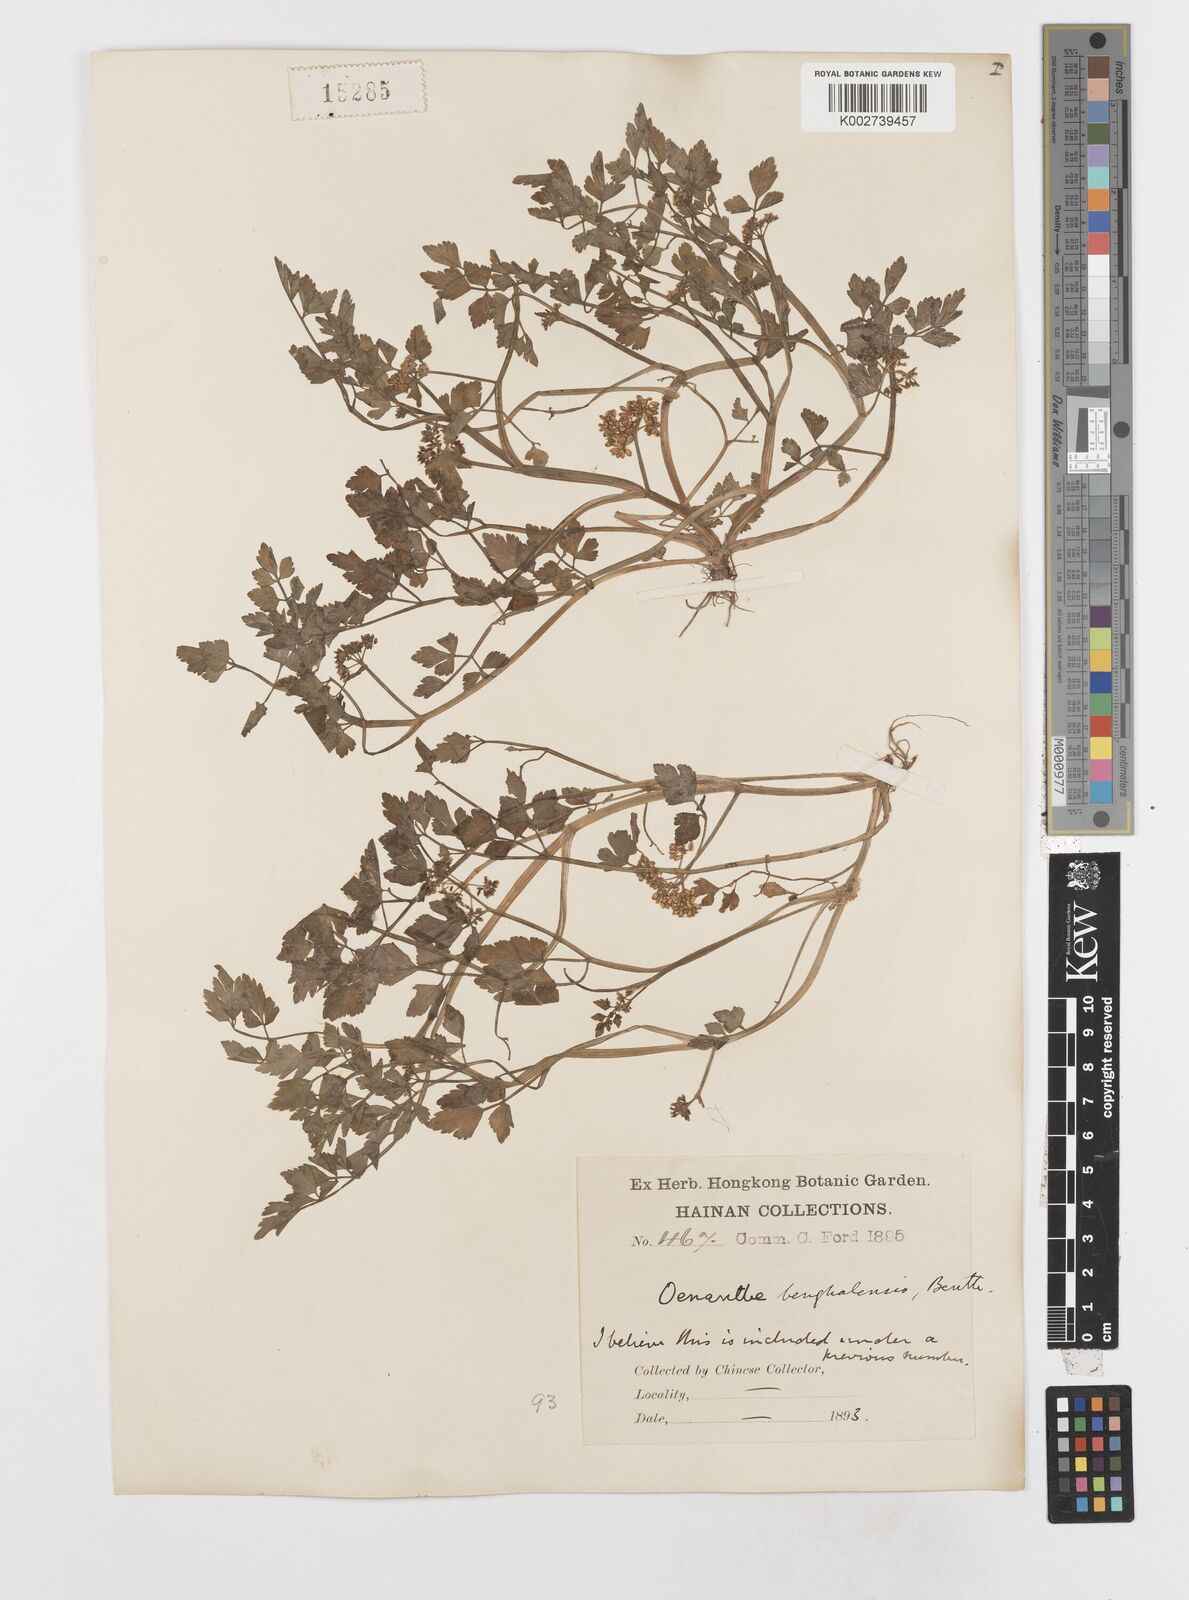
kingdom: Plantae
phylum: Tracheophyta
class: Magnoliopsida
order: Apiales
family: Apiaceae
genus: Oenanthe
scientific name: Oenanthe javanica
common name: Java water-dropwort
